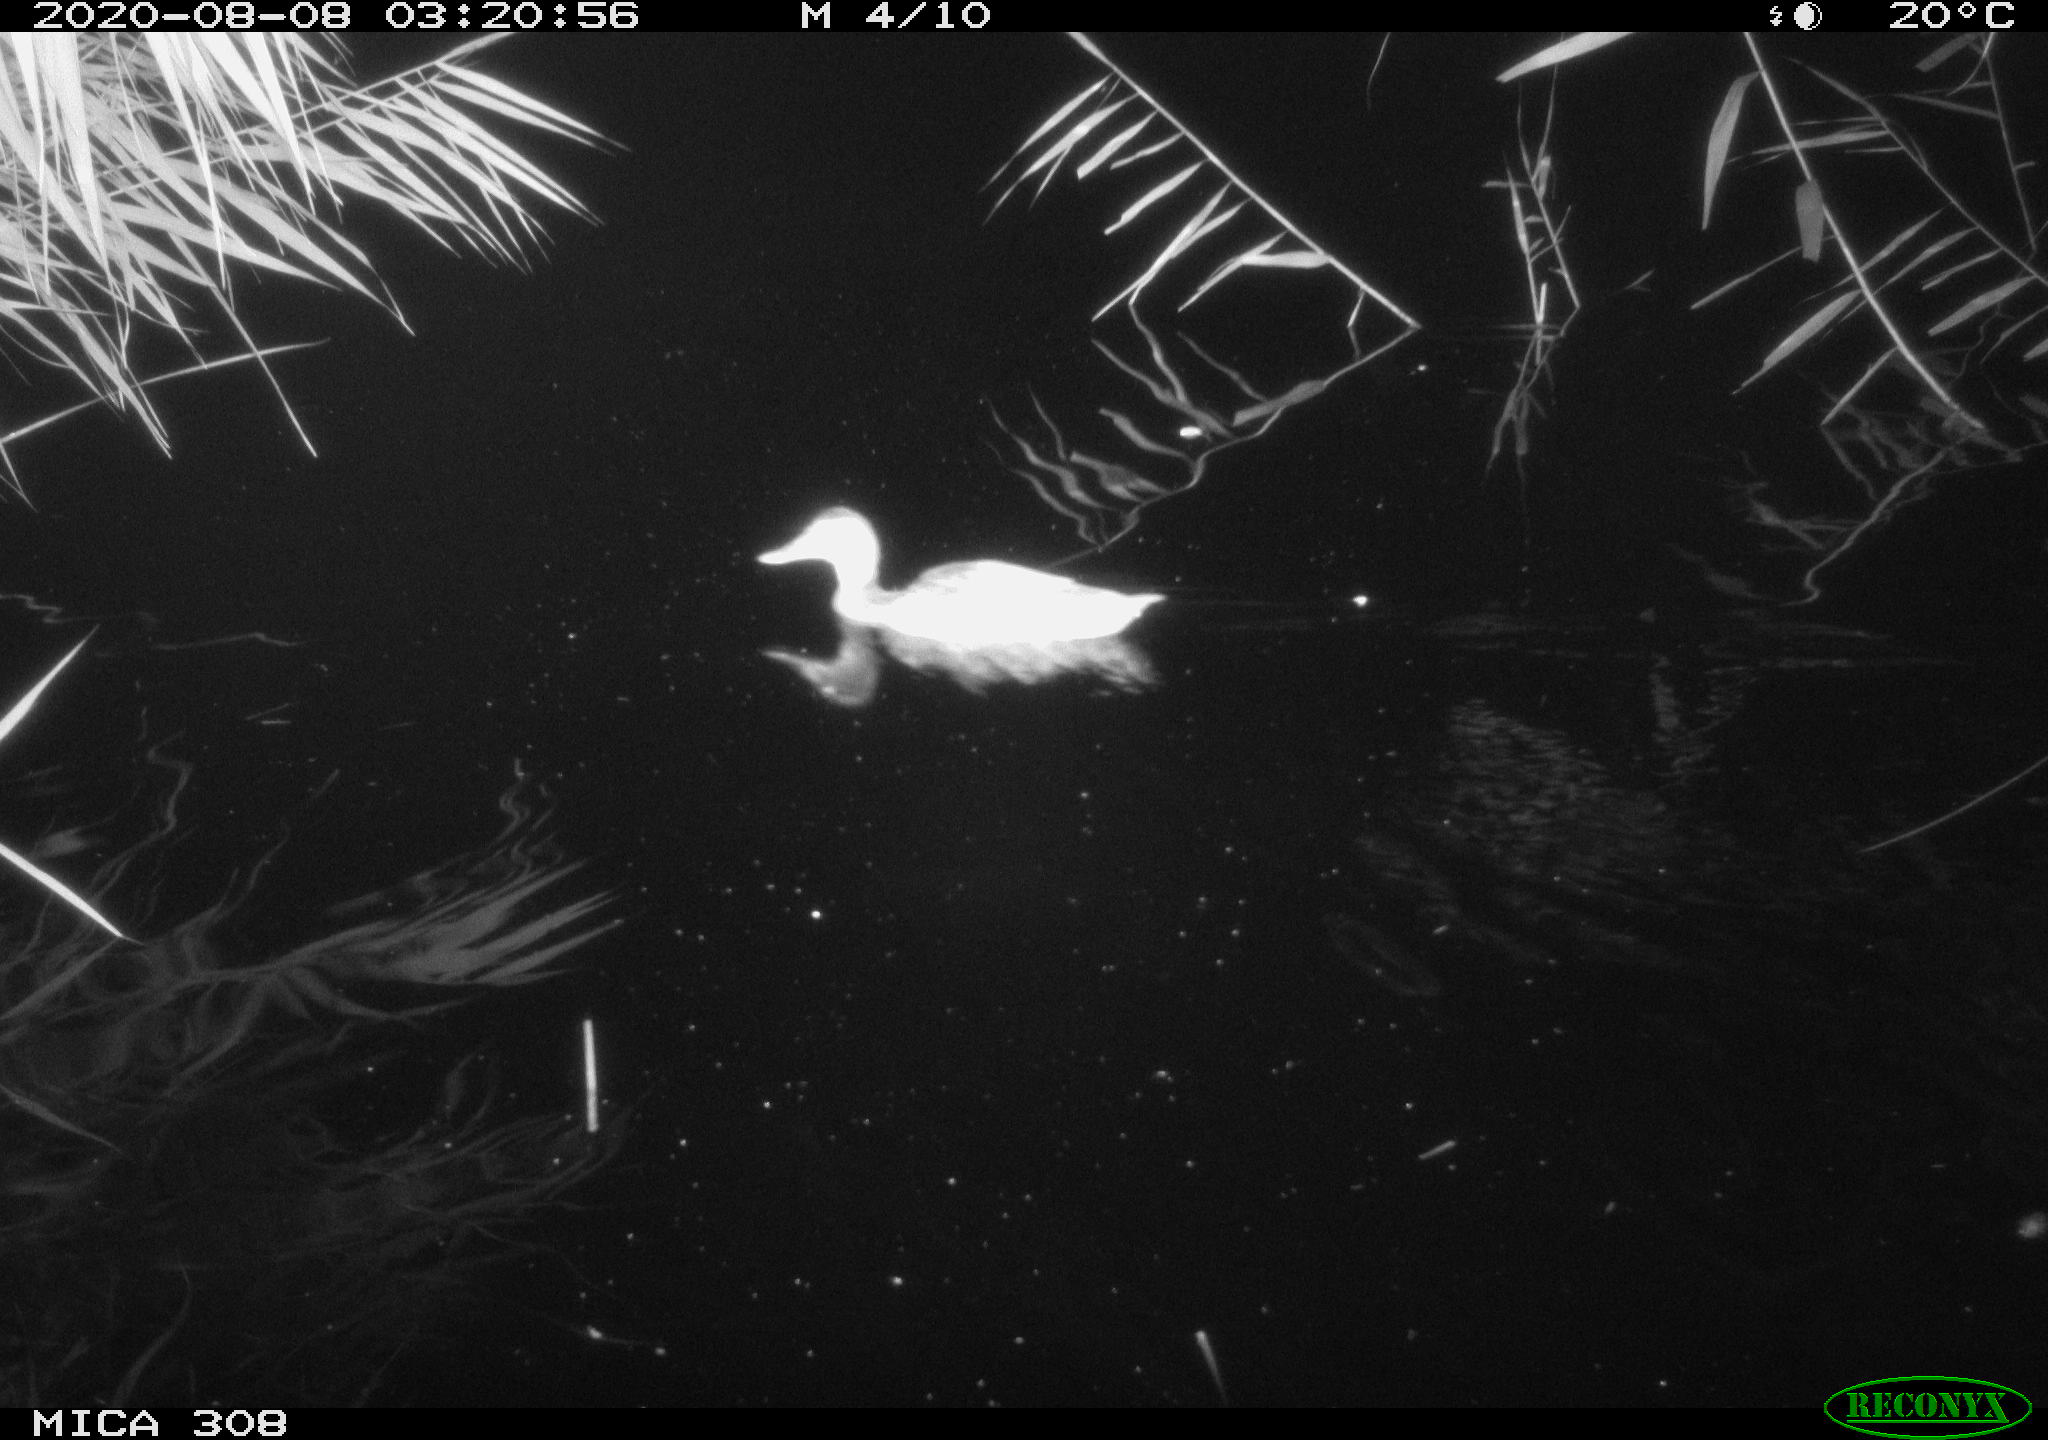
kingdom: Animalia
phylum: Chordata
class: Aves
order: Anseriformes
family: Anatidae
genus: Anas
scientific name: Anas platyrhynchos
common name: Mallard
